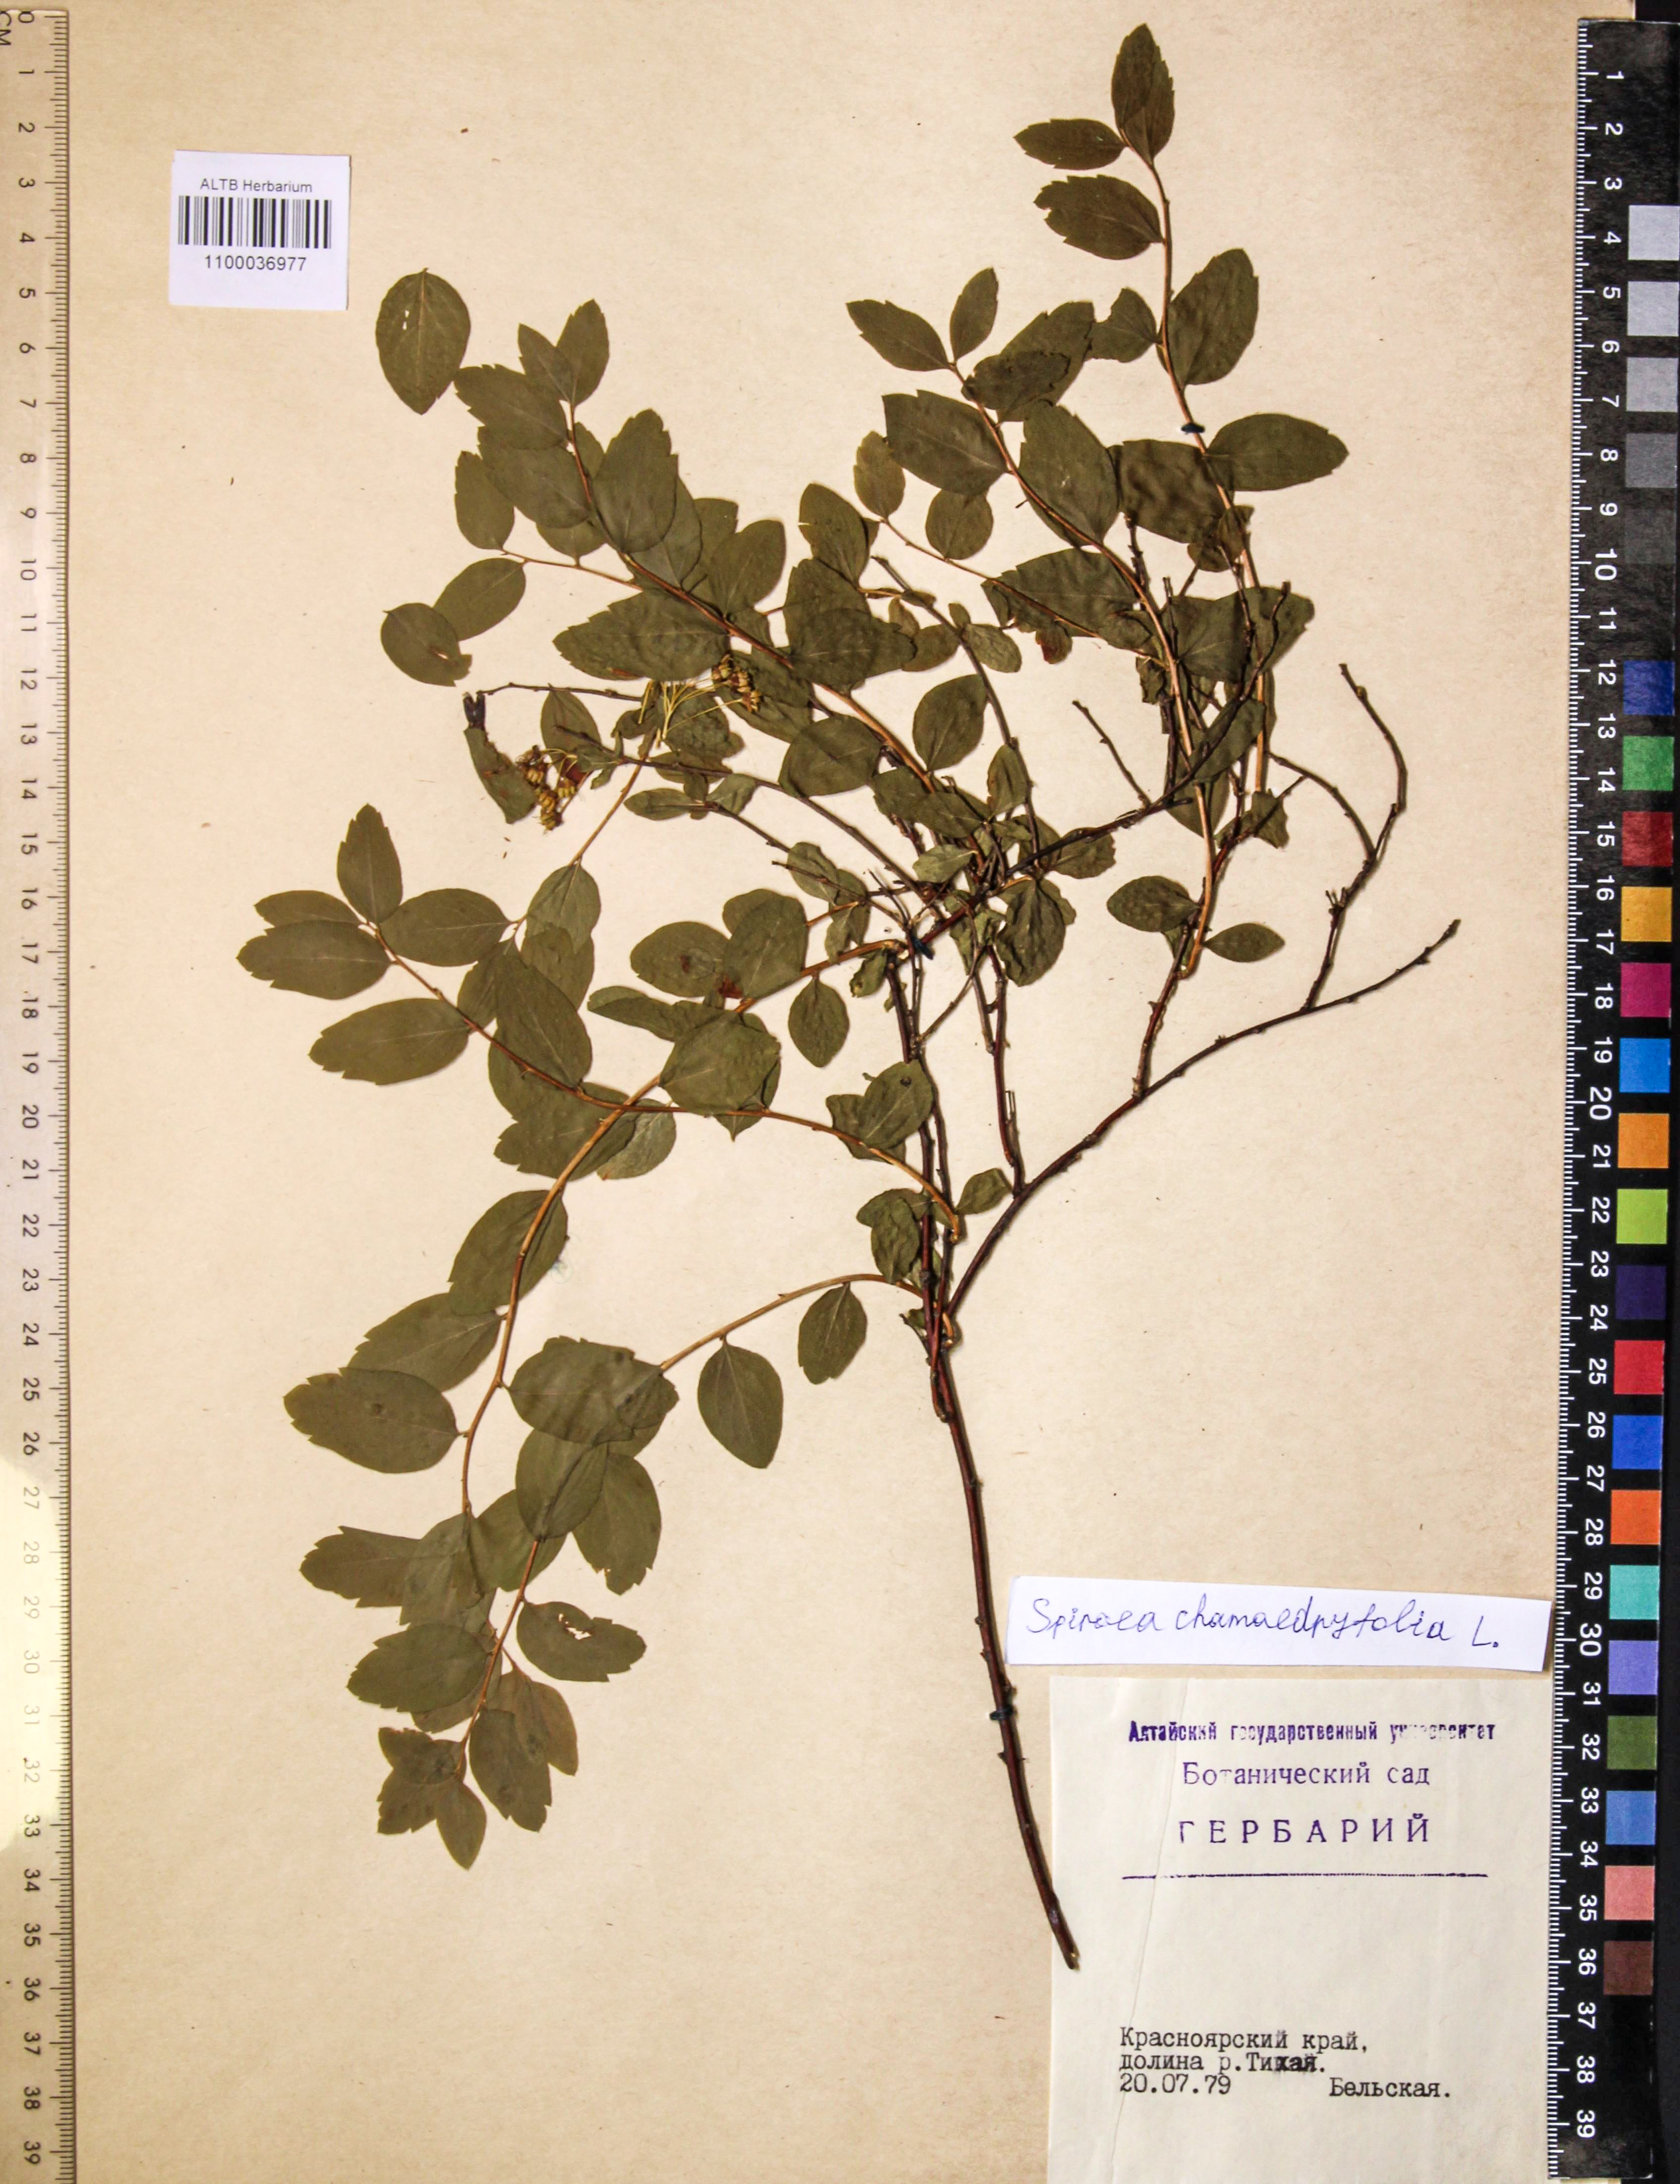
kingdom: Plantae
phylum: Tracheophyta
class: Magnoliopsida
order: Rosales
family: Rosaceae
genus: Spiraea
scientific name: Spiraea chamaedryfolia
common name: Elm-leaved spiraea
